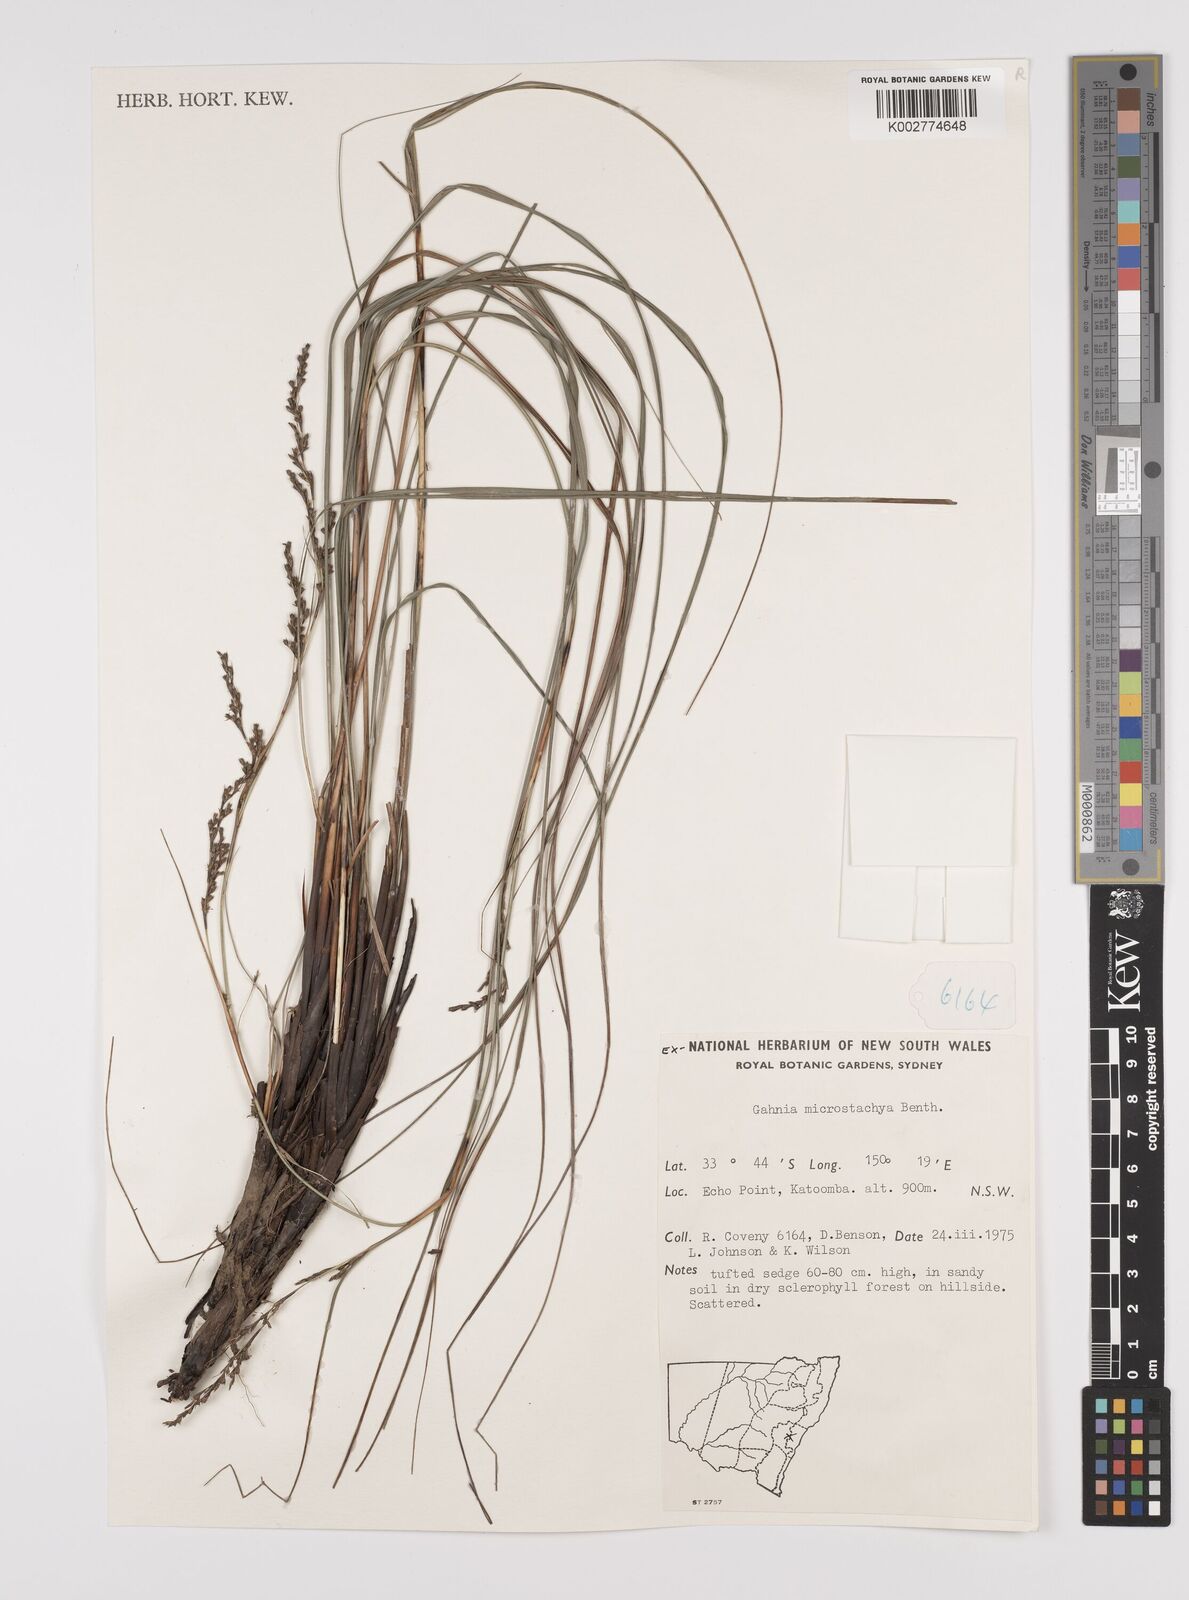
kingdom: Plantae
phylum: Tracheophyta
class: Liliopsida
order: Poales
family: Cyperaceae
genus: Gahnia
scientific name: Gahnia microstachya
